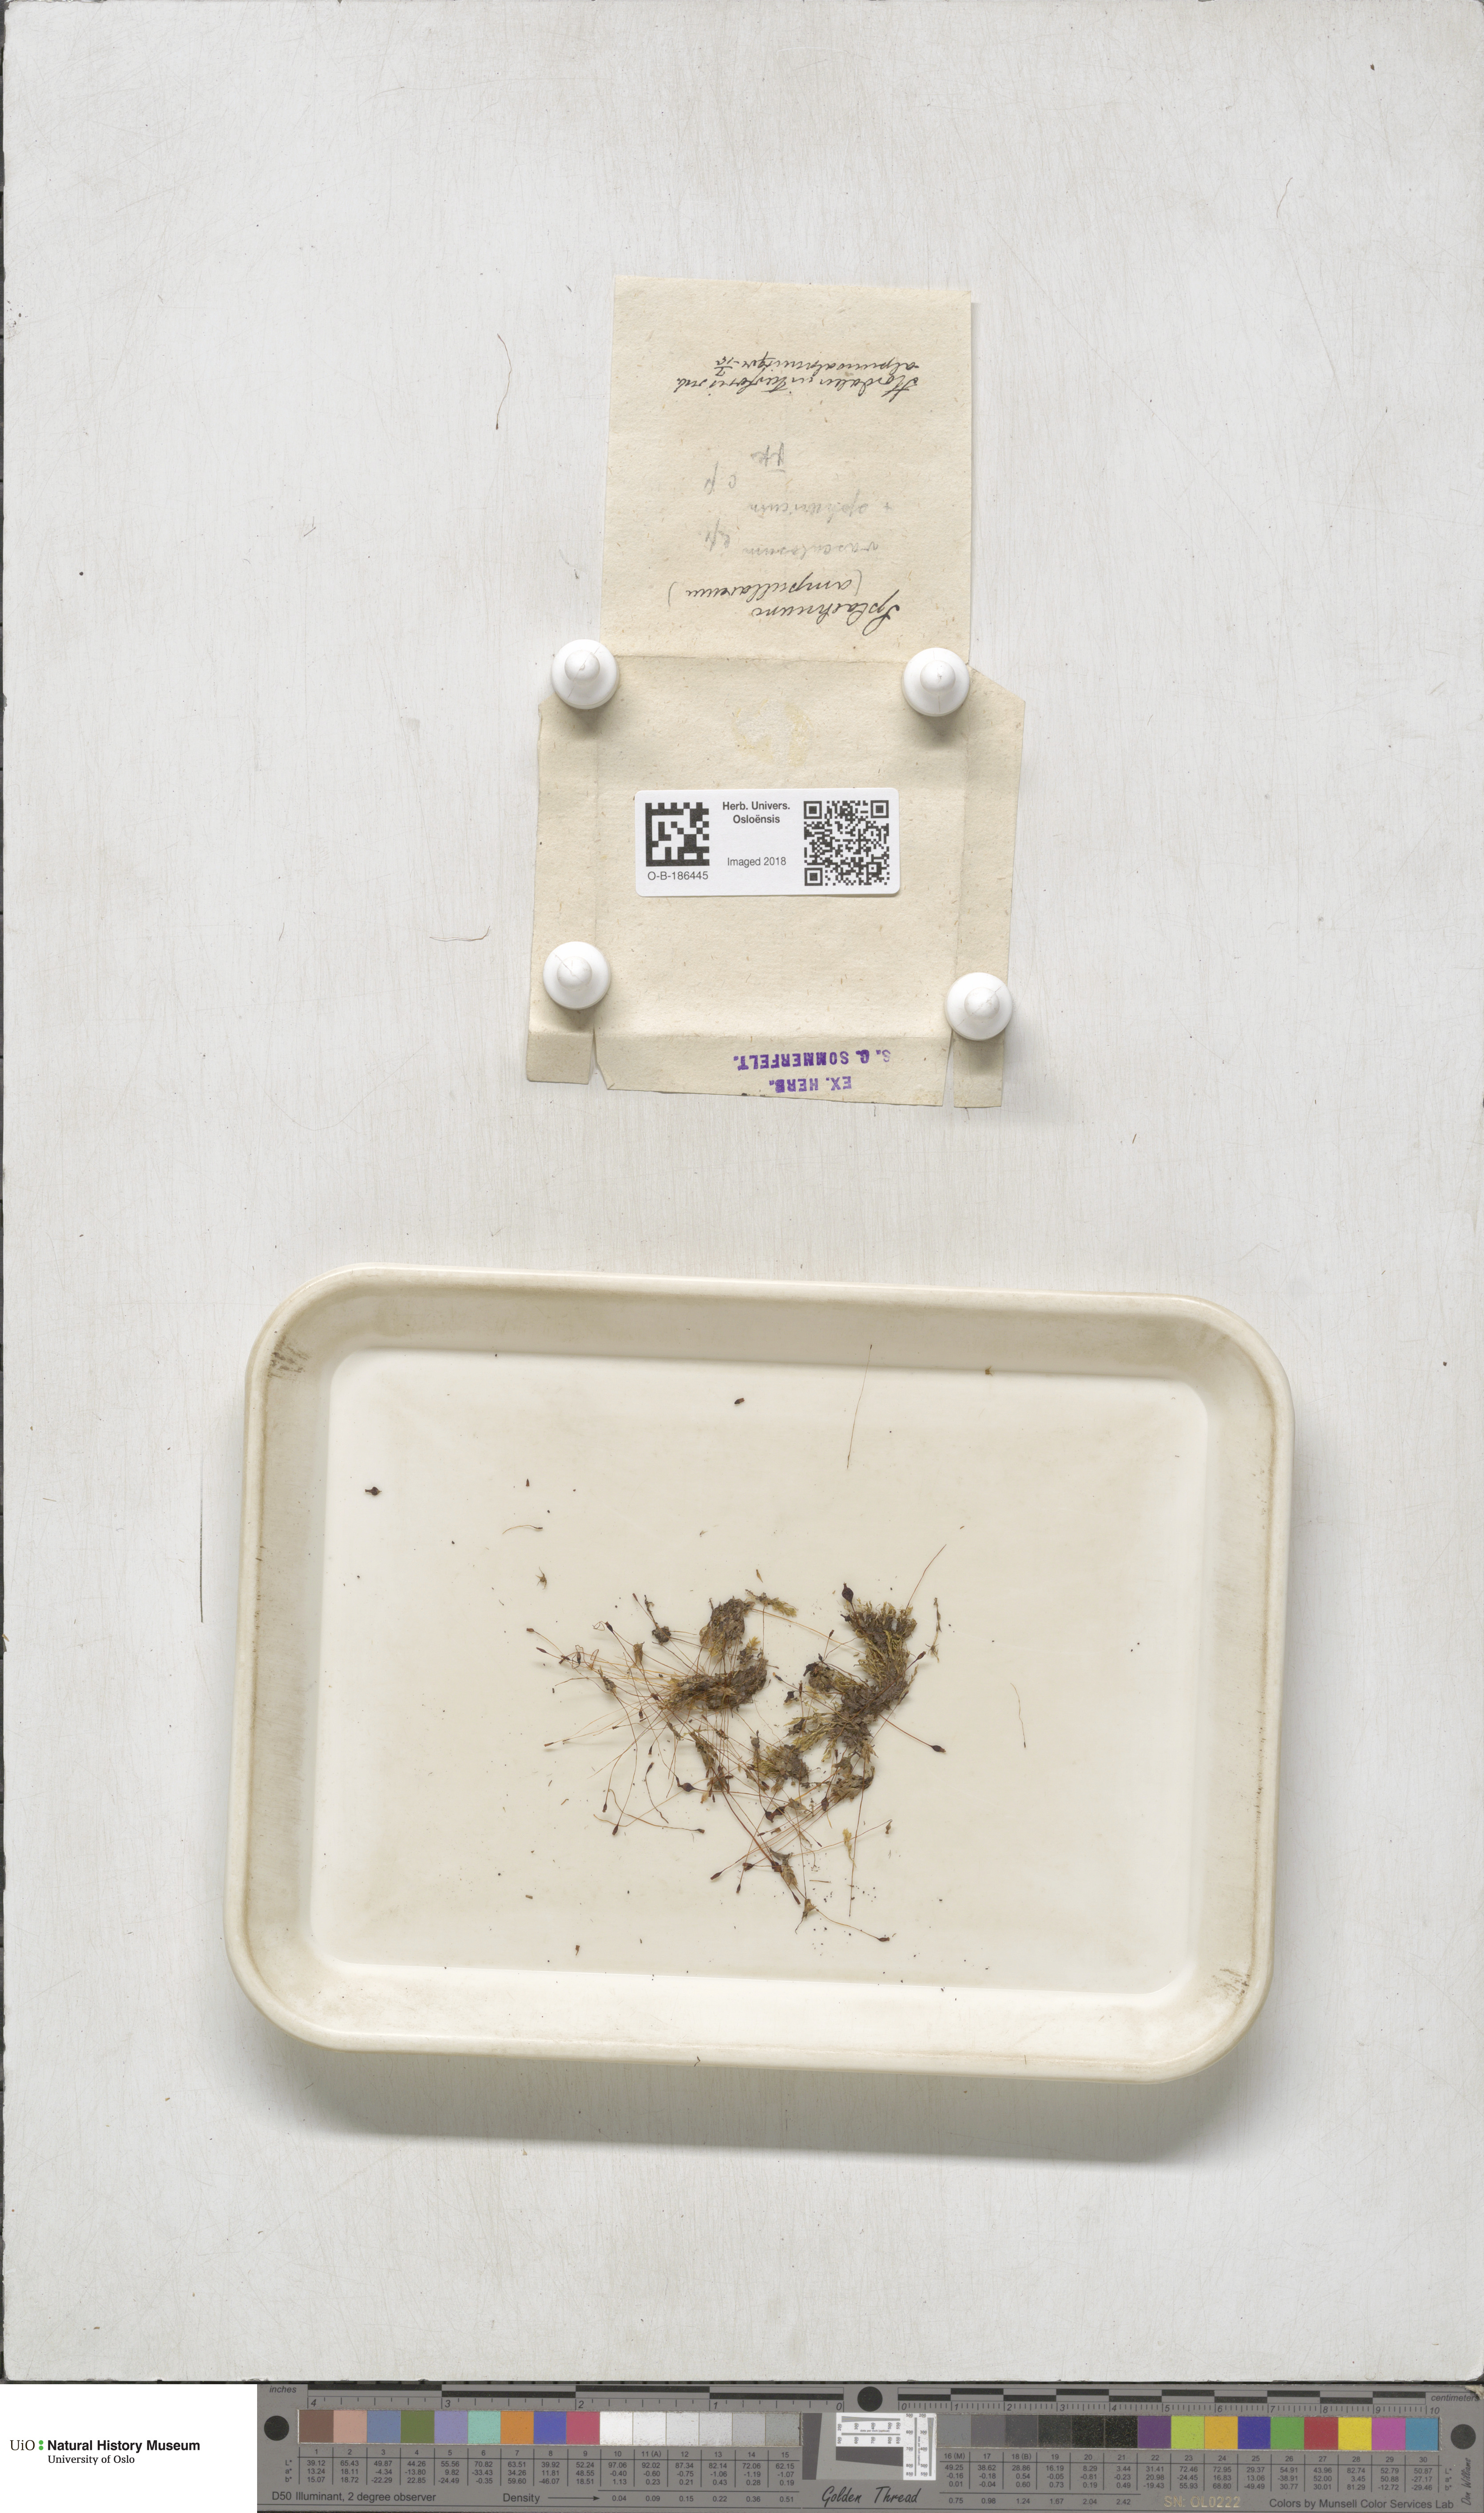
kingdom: Plantae
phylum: Bryophyta
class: Bryopsida
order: Splachnales
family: Splachnaceae
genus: Splachnum
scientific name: Splachnum sphaericum
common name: Round-fruited dung moss
